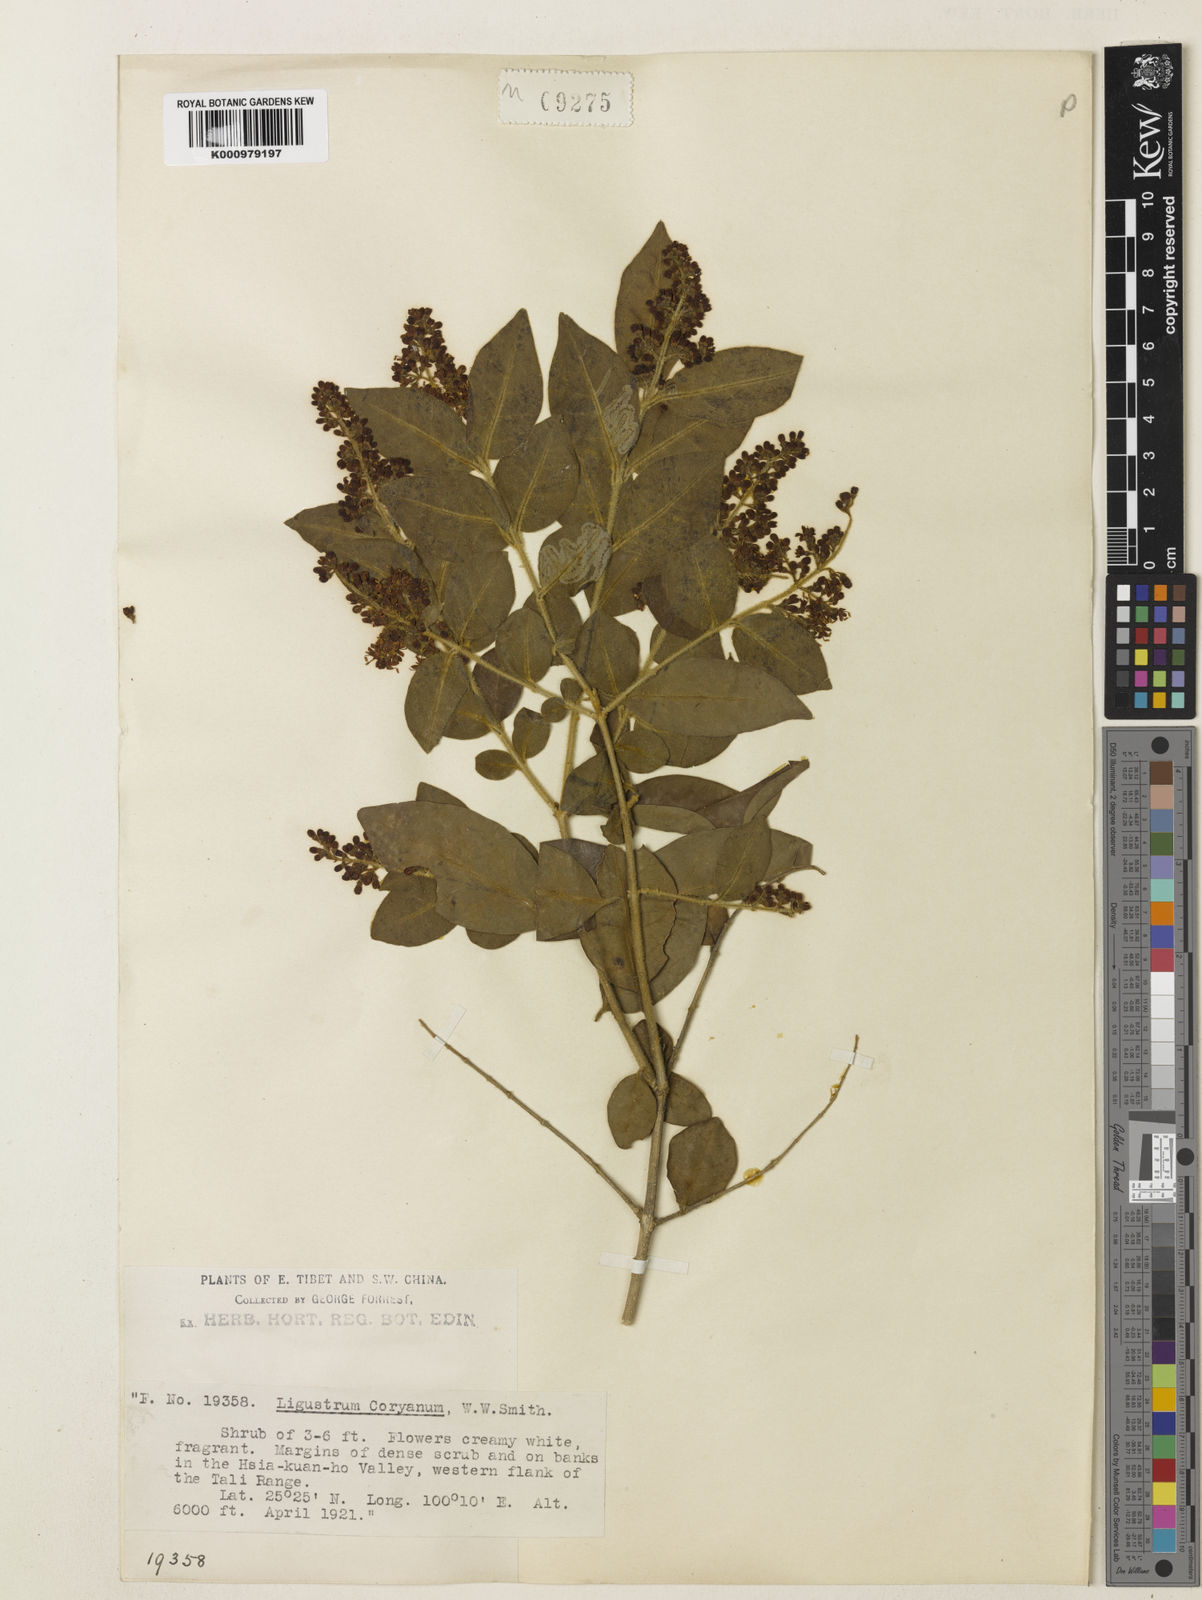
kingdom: Plantae
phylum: Tracheophyta
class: Magnoliopsida
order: Lamiales
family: Oleaceae
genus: Ligustrum
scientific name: Ligustrum sinense
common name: Chinese privet
